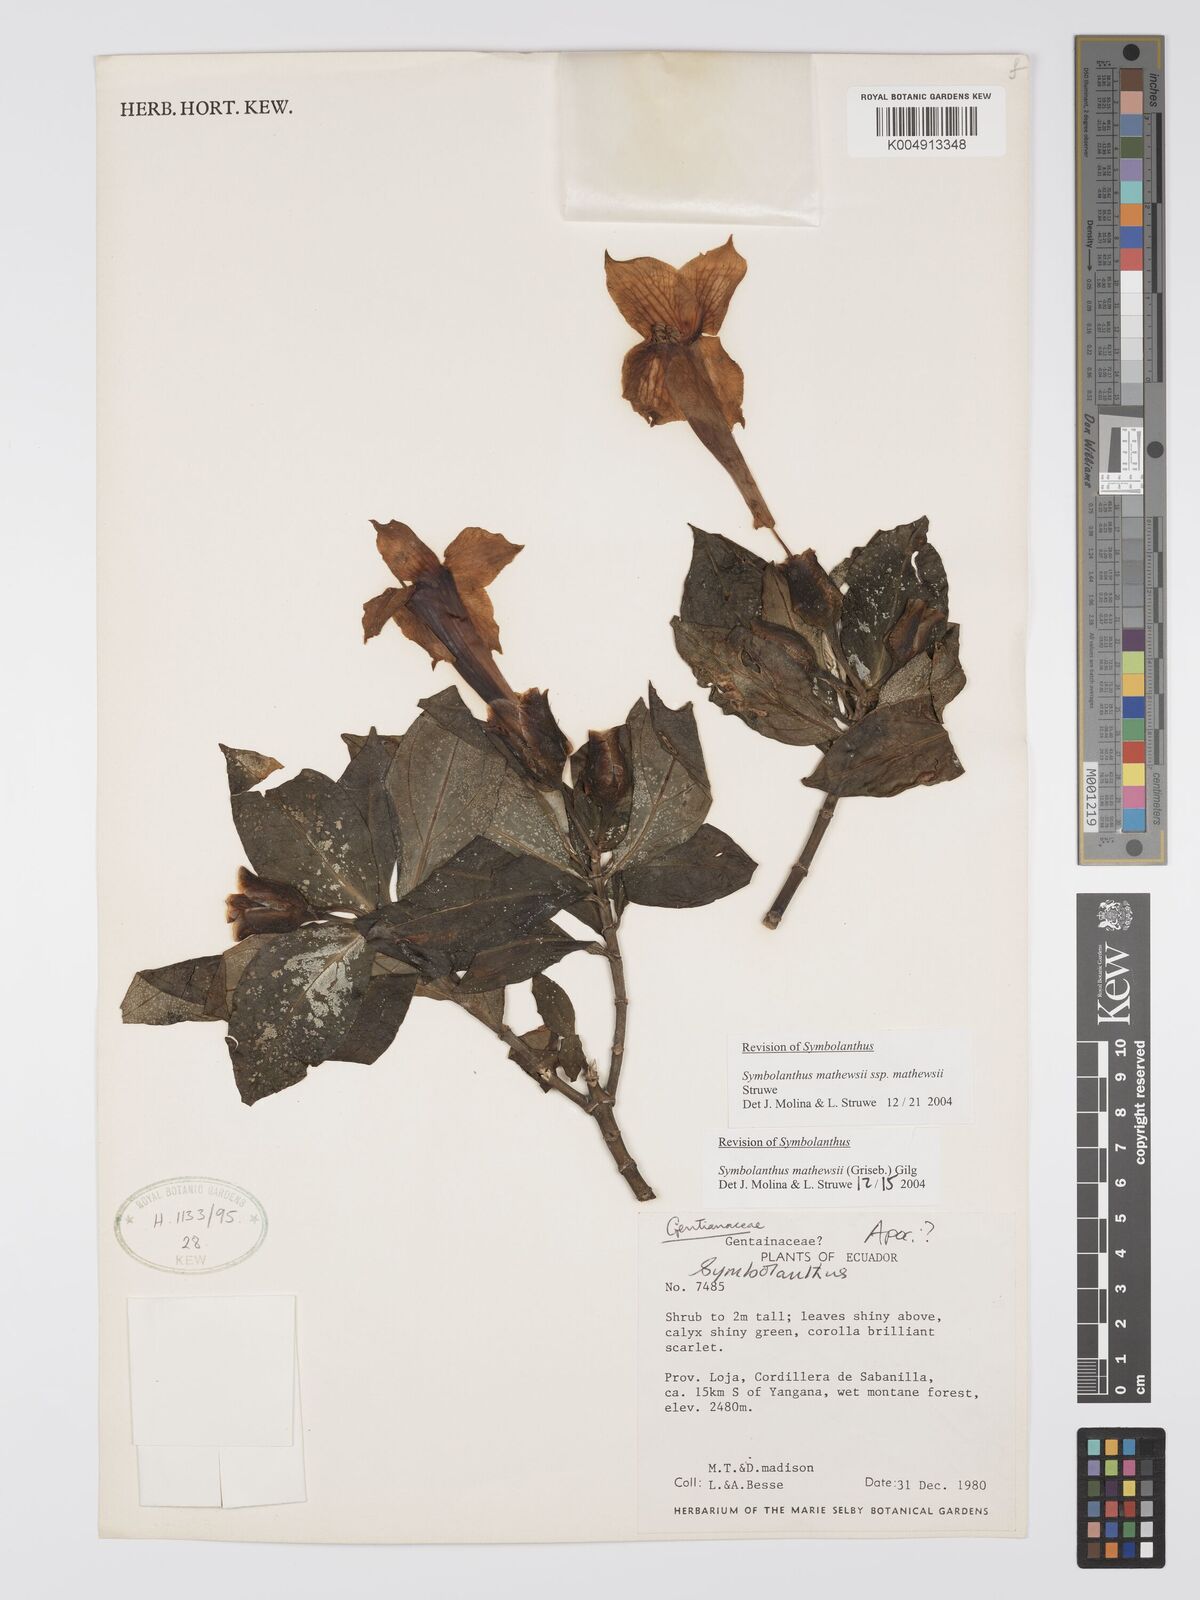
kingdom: Plantae
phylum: Tracheophyta
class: Magnoliopsida
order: Gentianales
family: Gentianaceae
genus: Symbolanthus
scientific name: Symbolanthus mathewsii
